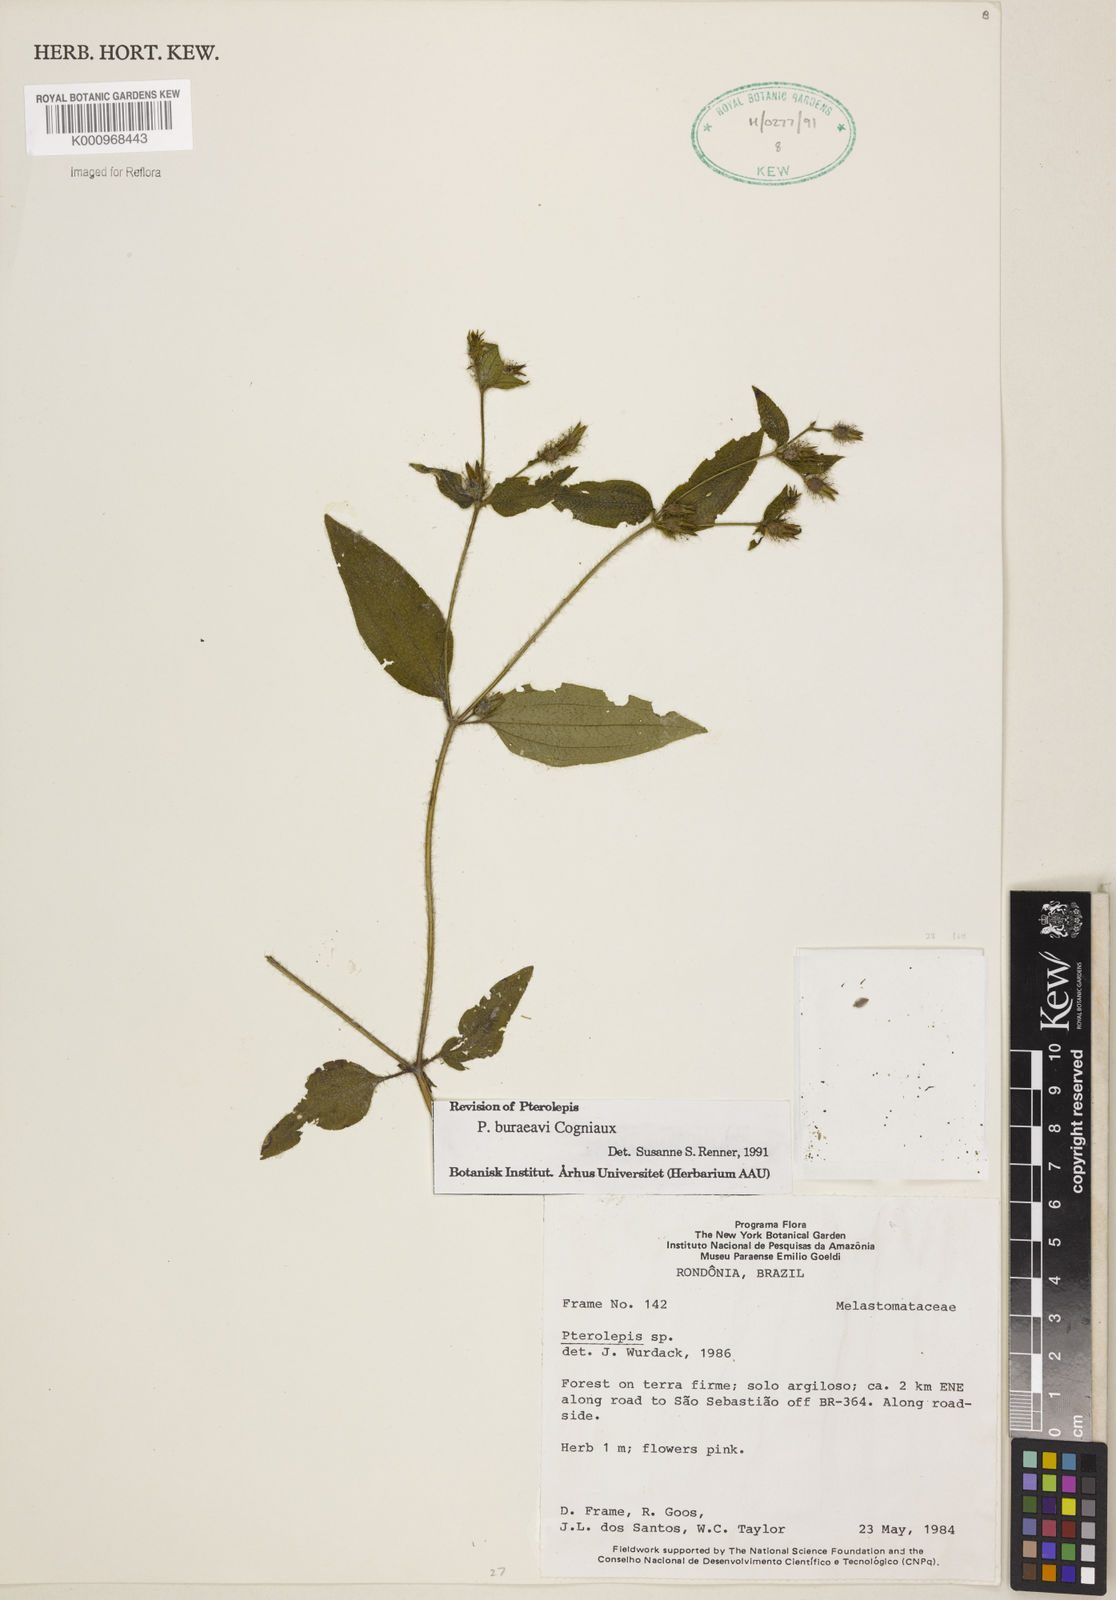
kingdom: Plantae
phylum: Tracheophyta
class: Magnoliopsida
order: Myrtales
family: Melastomataceae
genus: Pterolepis
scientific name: Pterolepis buraeavi
